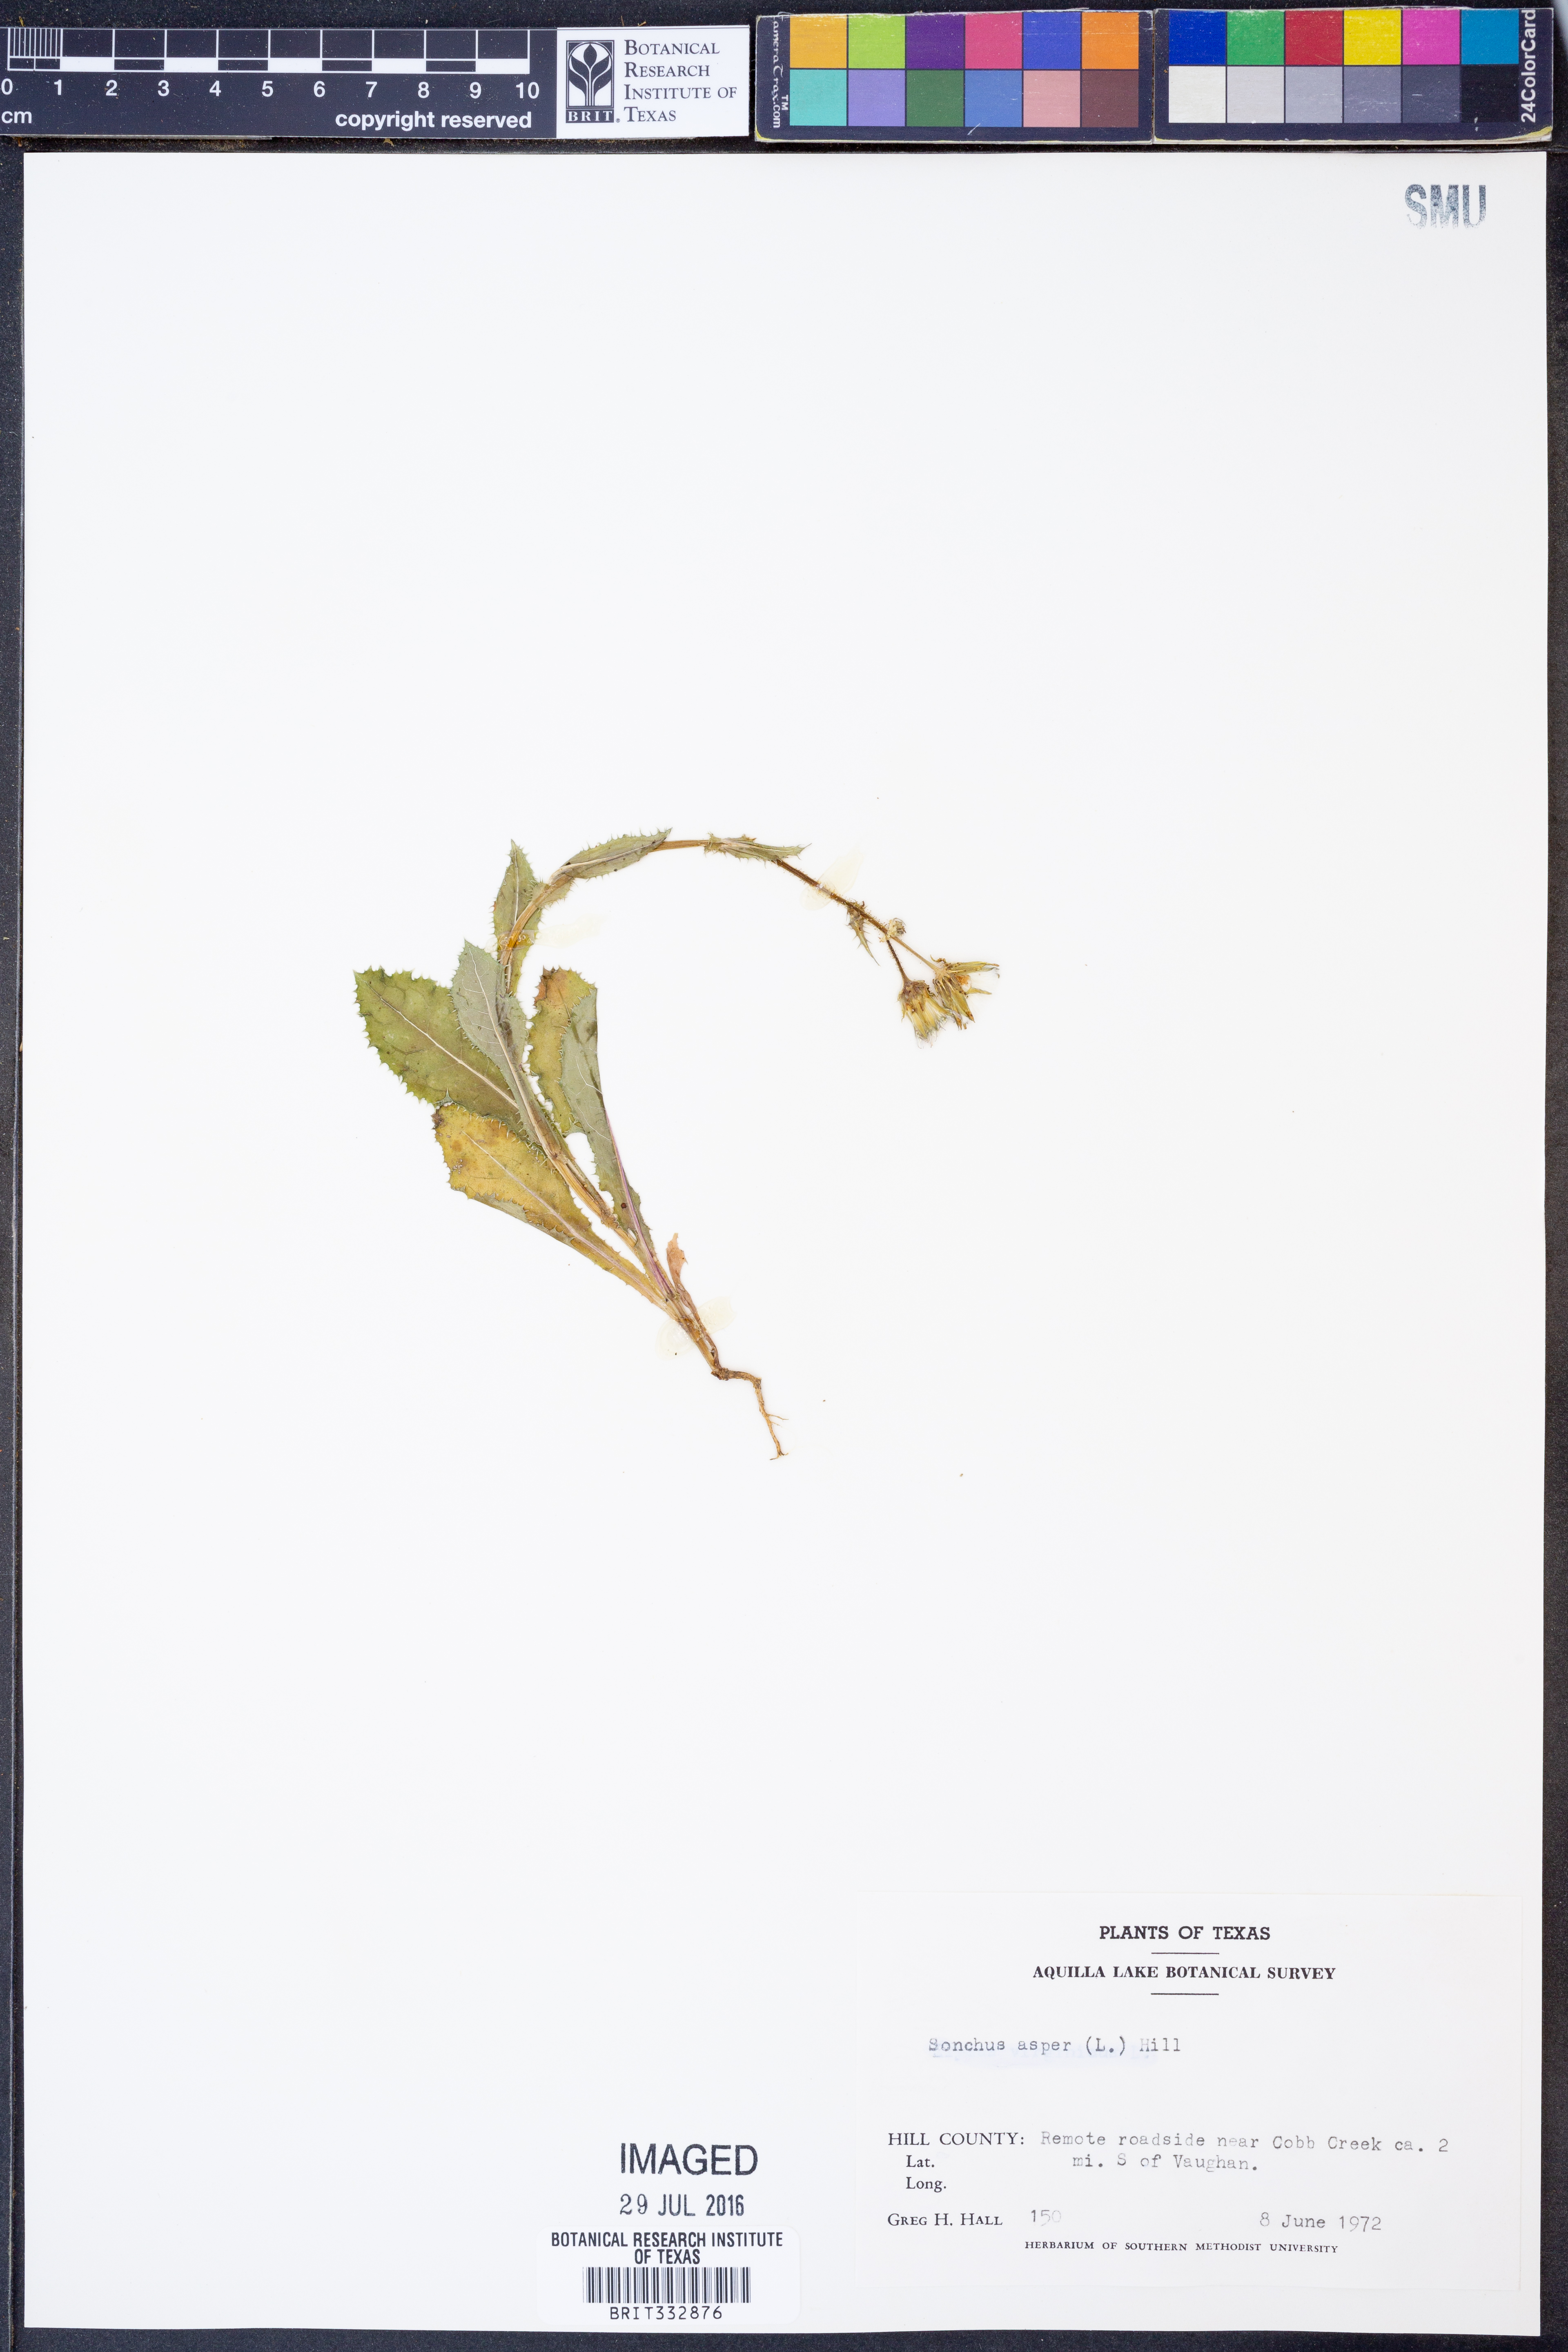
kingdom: Plantae
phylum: Tracheophyta
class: Magnoliopsida
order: Asterales
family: Asteraceae
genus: Sonchus
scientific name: Sonchus asper
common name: Prickly sow-thistle
